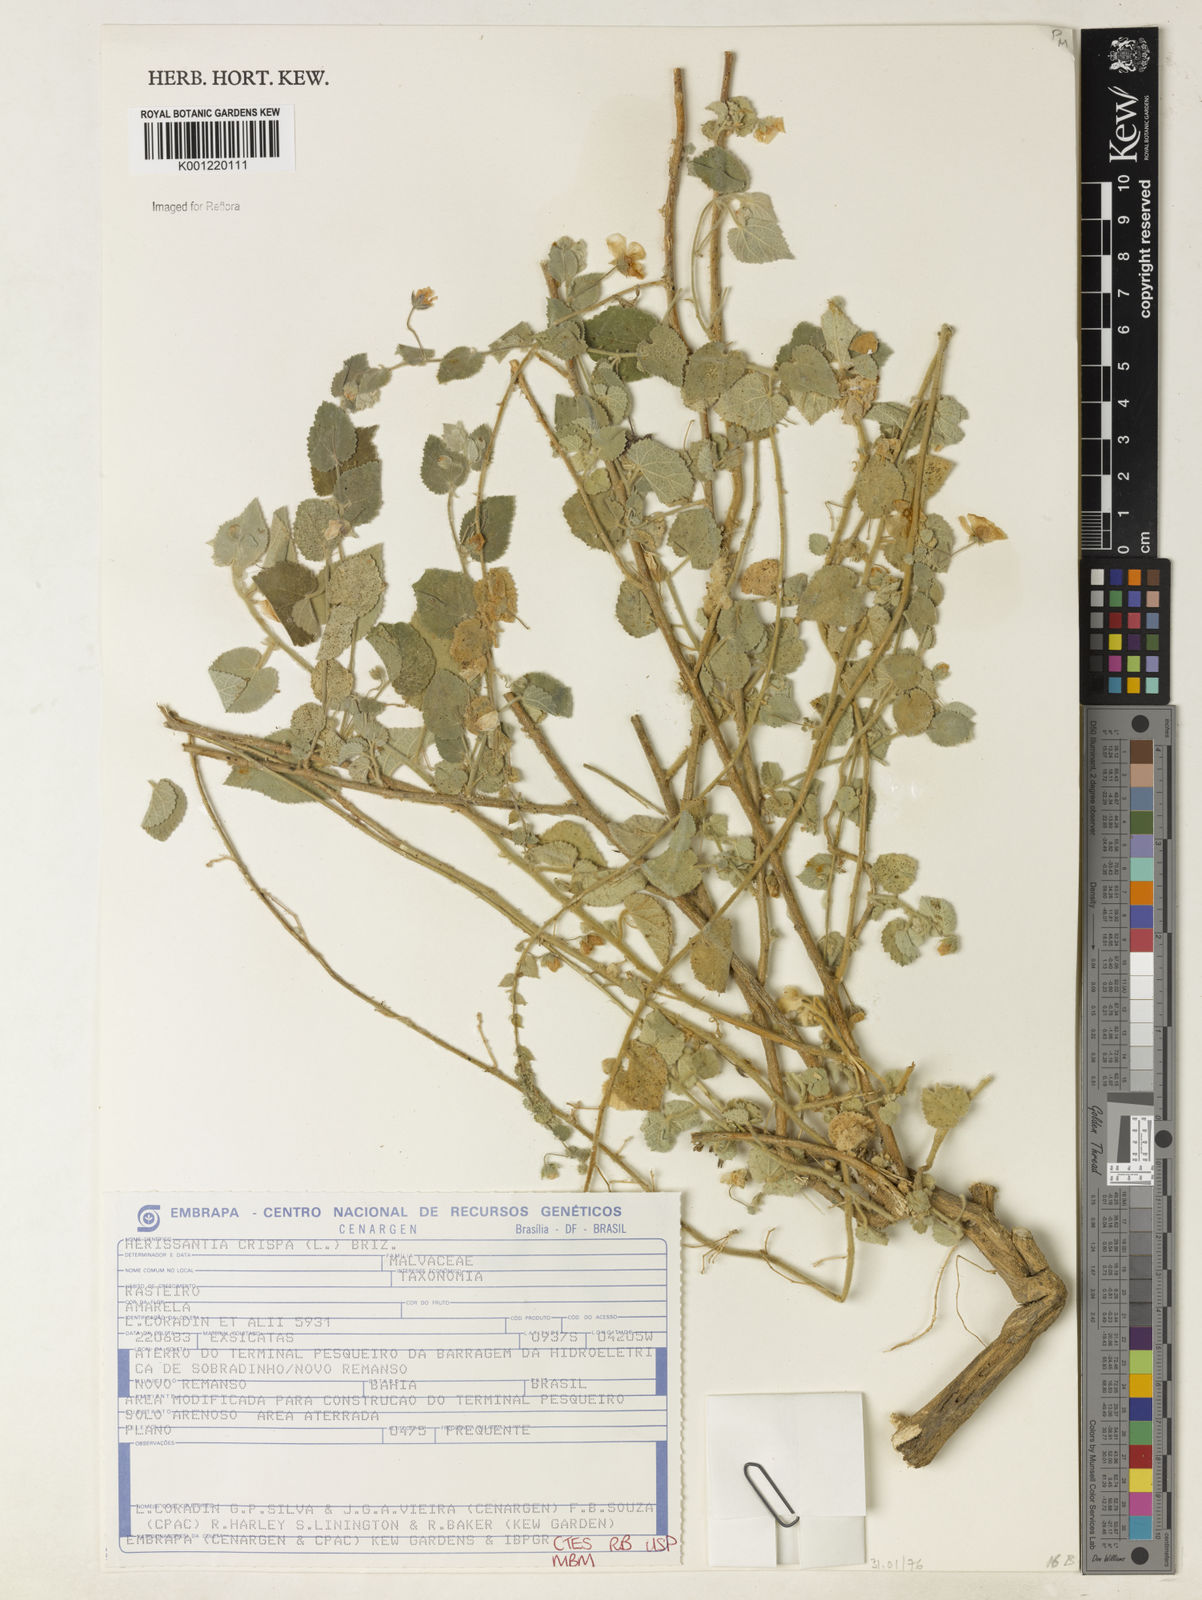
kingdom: Plantae
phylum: Tracheophyta
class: Magnoliopsida
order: Malvales
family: Malvaceae
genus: Herissantia
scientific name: Herissantia crispa
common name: Bladdermallow
